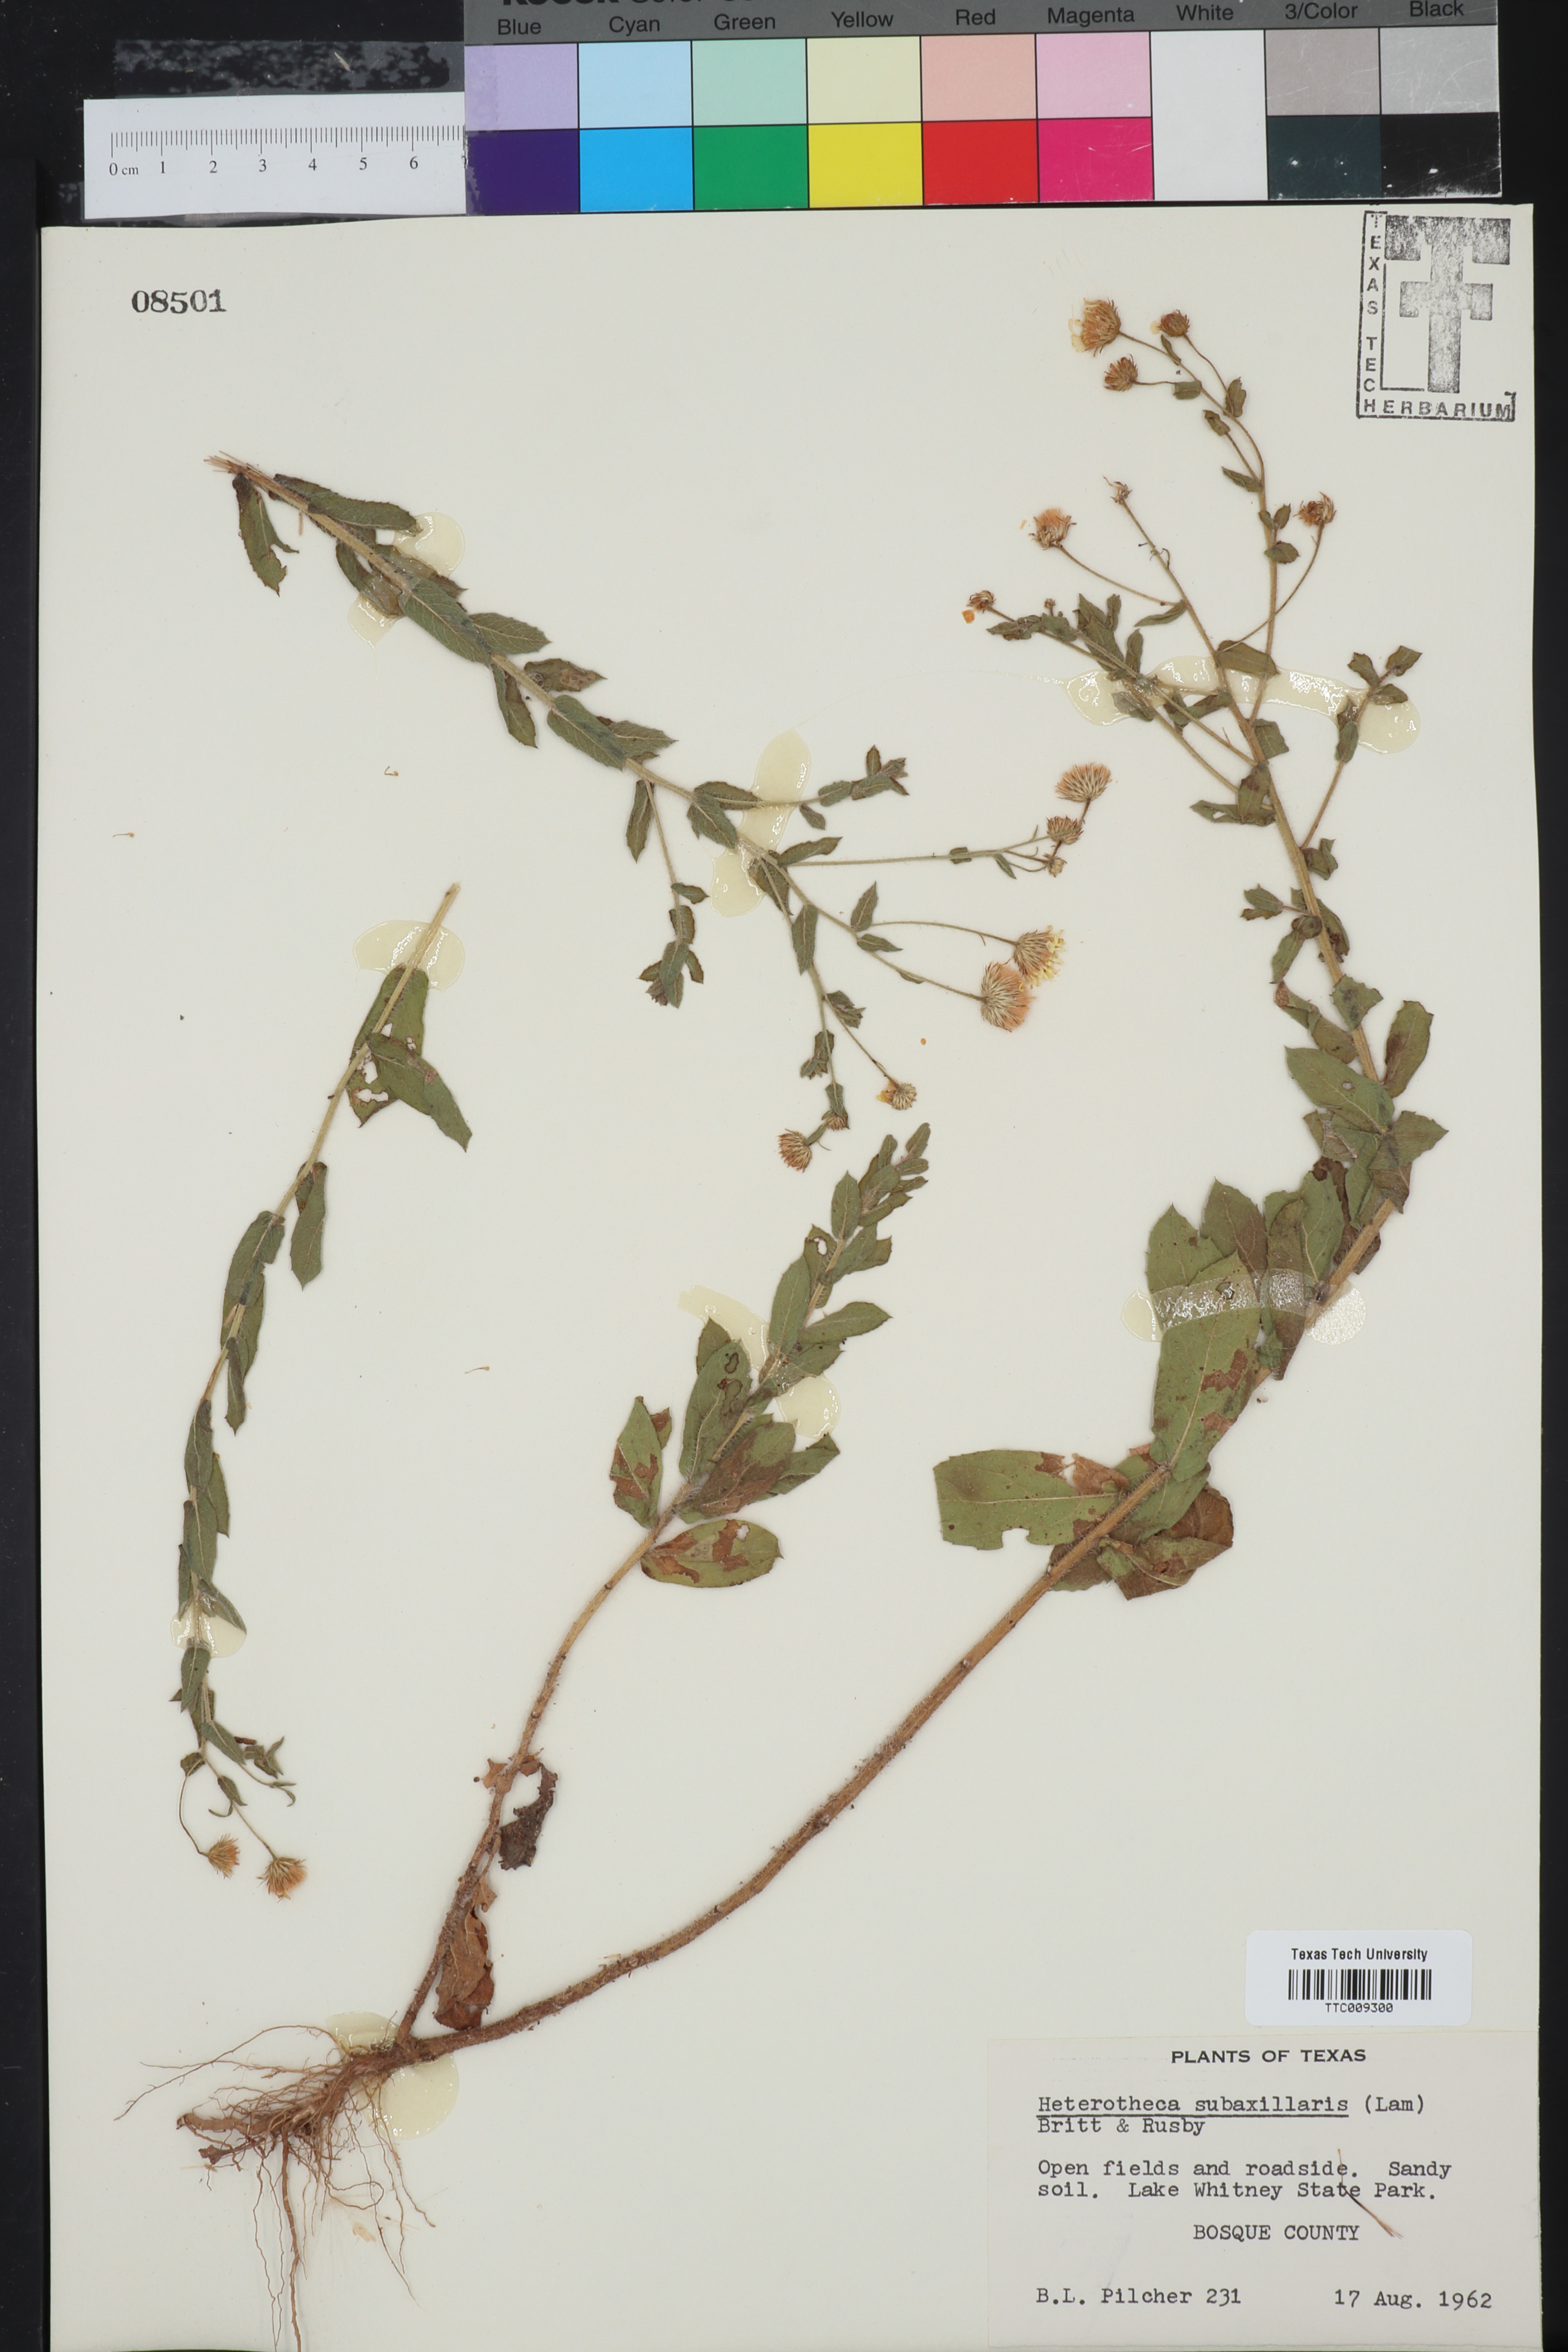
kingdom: Plantae
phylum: Tracheophyta
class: Magnoliopsida
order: Asterales
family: Asteraceae
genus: Heterotheca
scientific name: Heterotheca subaxillaris
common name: Camphorweed
